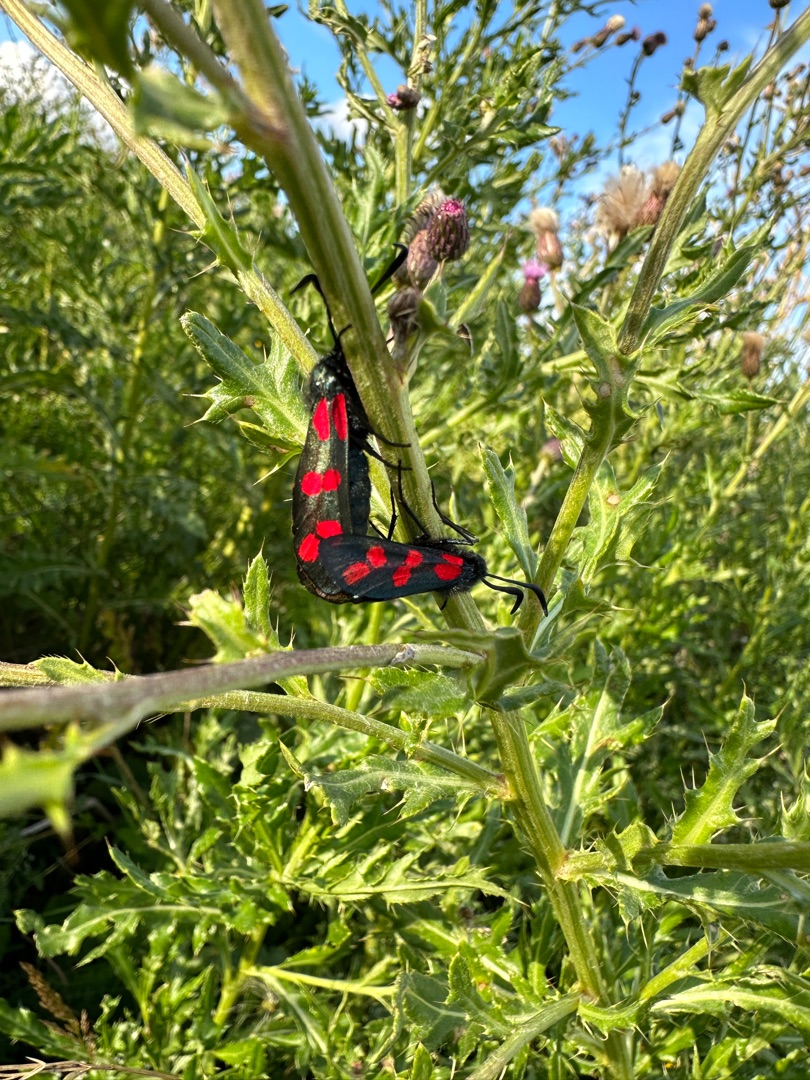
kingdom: Animalia
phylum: Arthropoda
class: Insecta
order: Lepidoptera
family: Zygaenidae
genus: Zygaena
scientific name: Zygaena filipendulae
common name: Seksplettet køllesværmer
